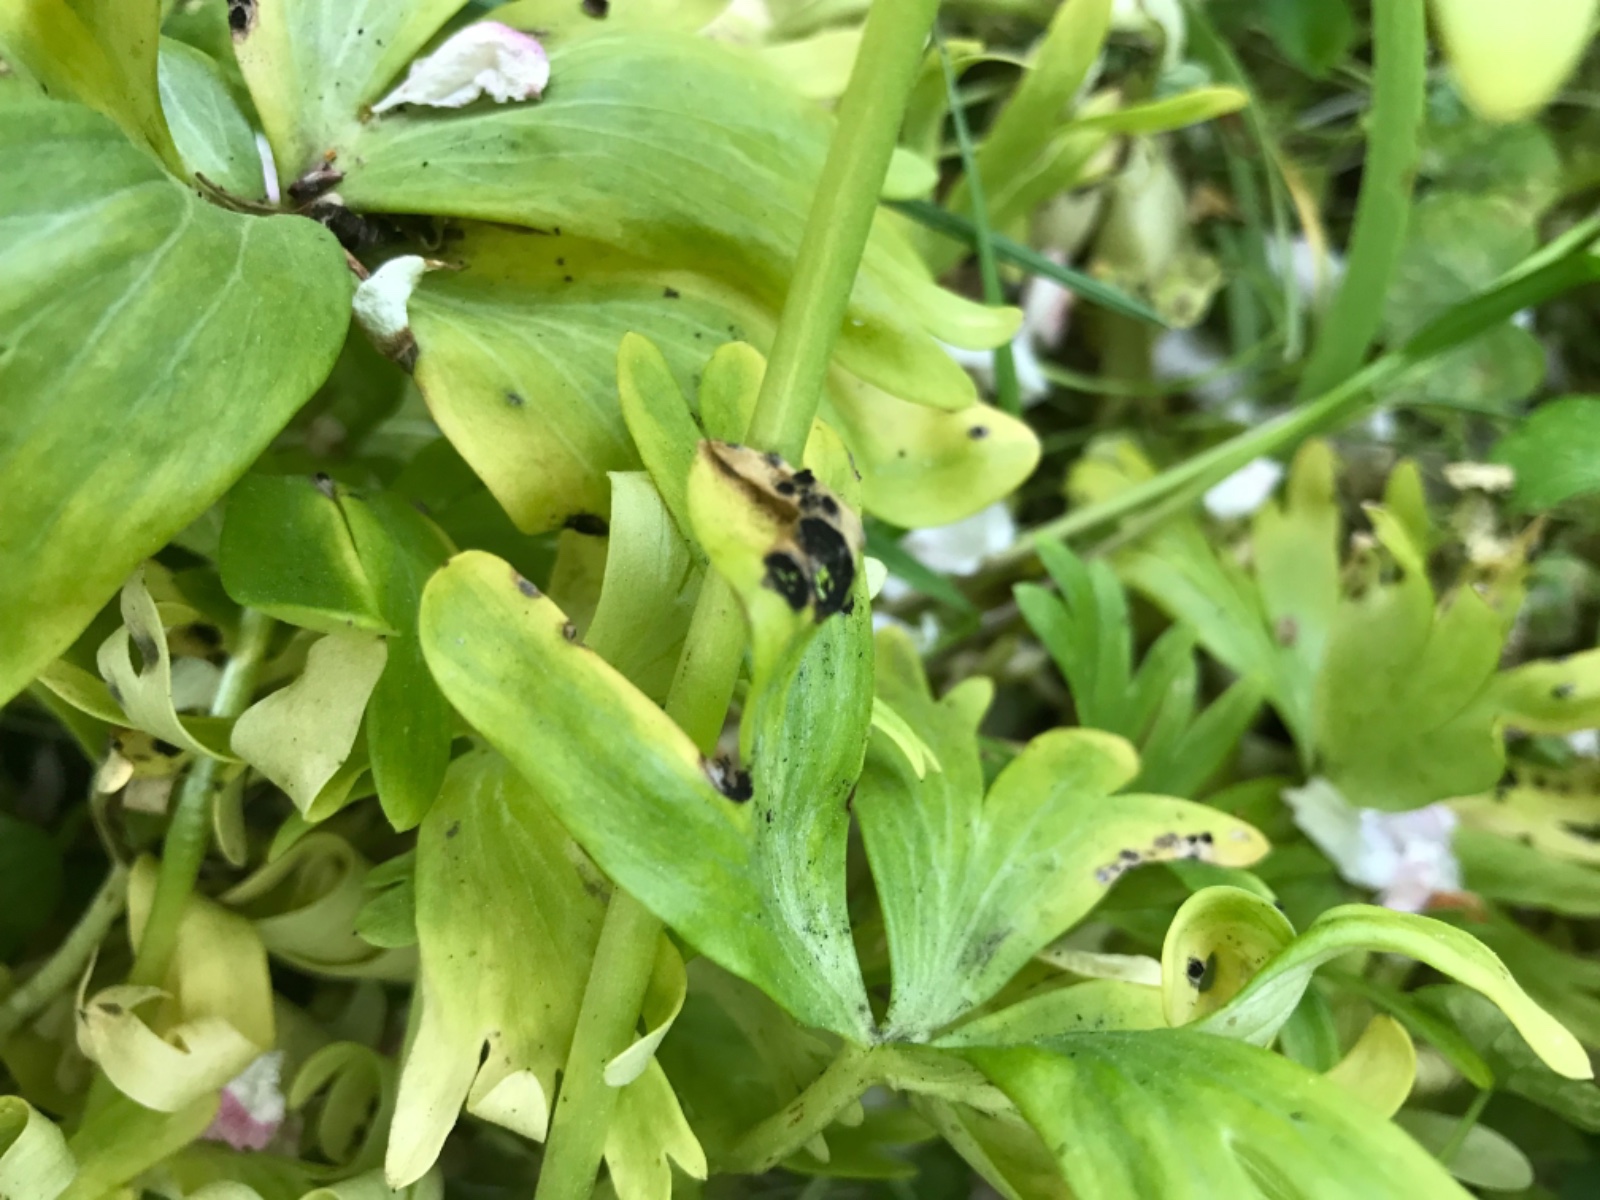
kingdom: Fungi
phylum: Basidiomycota
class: Ustilaginomycetes
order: Urocystidales
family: Urocystidaceae
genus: Urocystis
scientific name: Urocystis eranthidis
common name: erantis-brand
